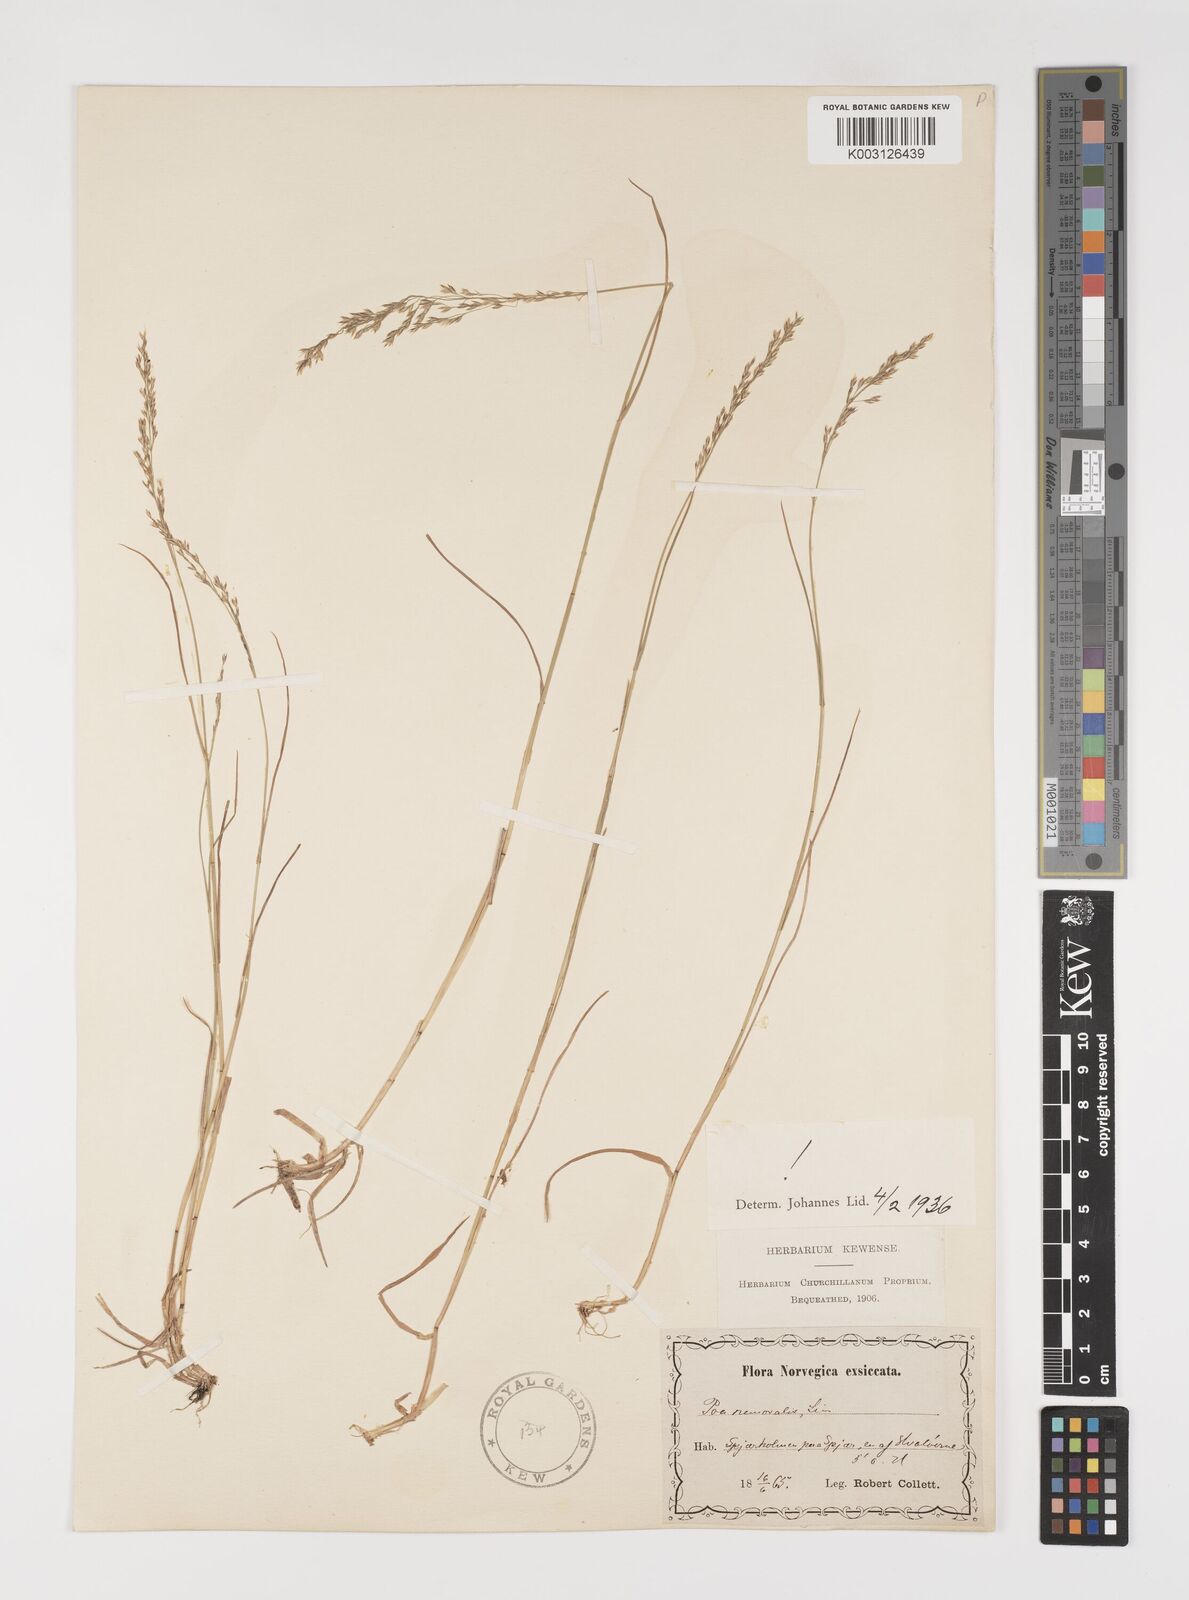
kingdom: Plantae
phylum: Tracheophyta
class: Liliopsida
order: Poales
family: Poaceae
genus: Poa
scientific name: Poa nemoralis
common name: Wood bluegrass
